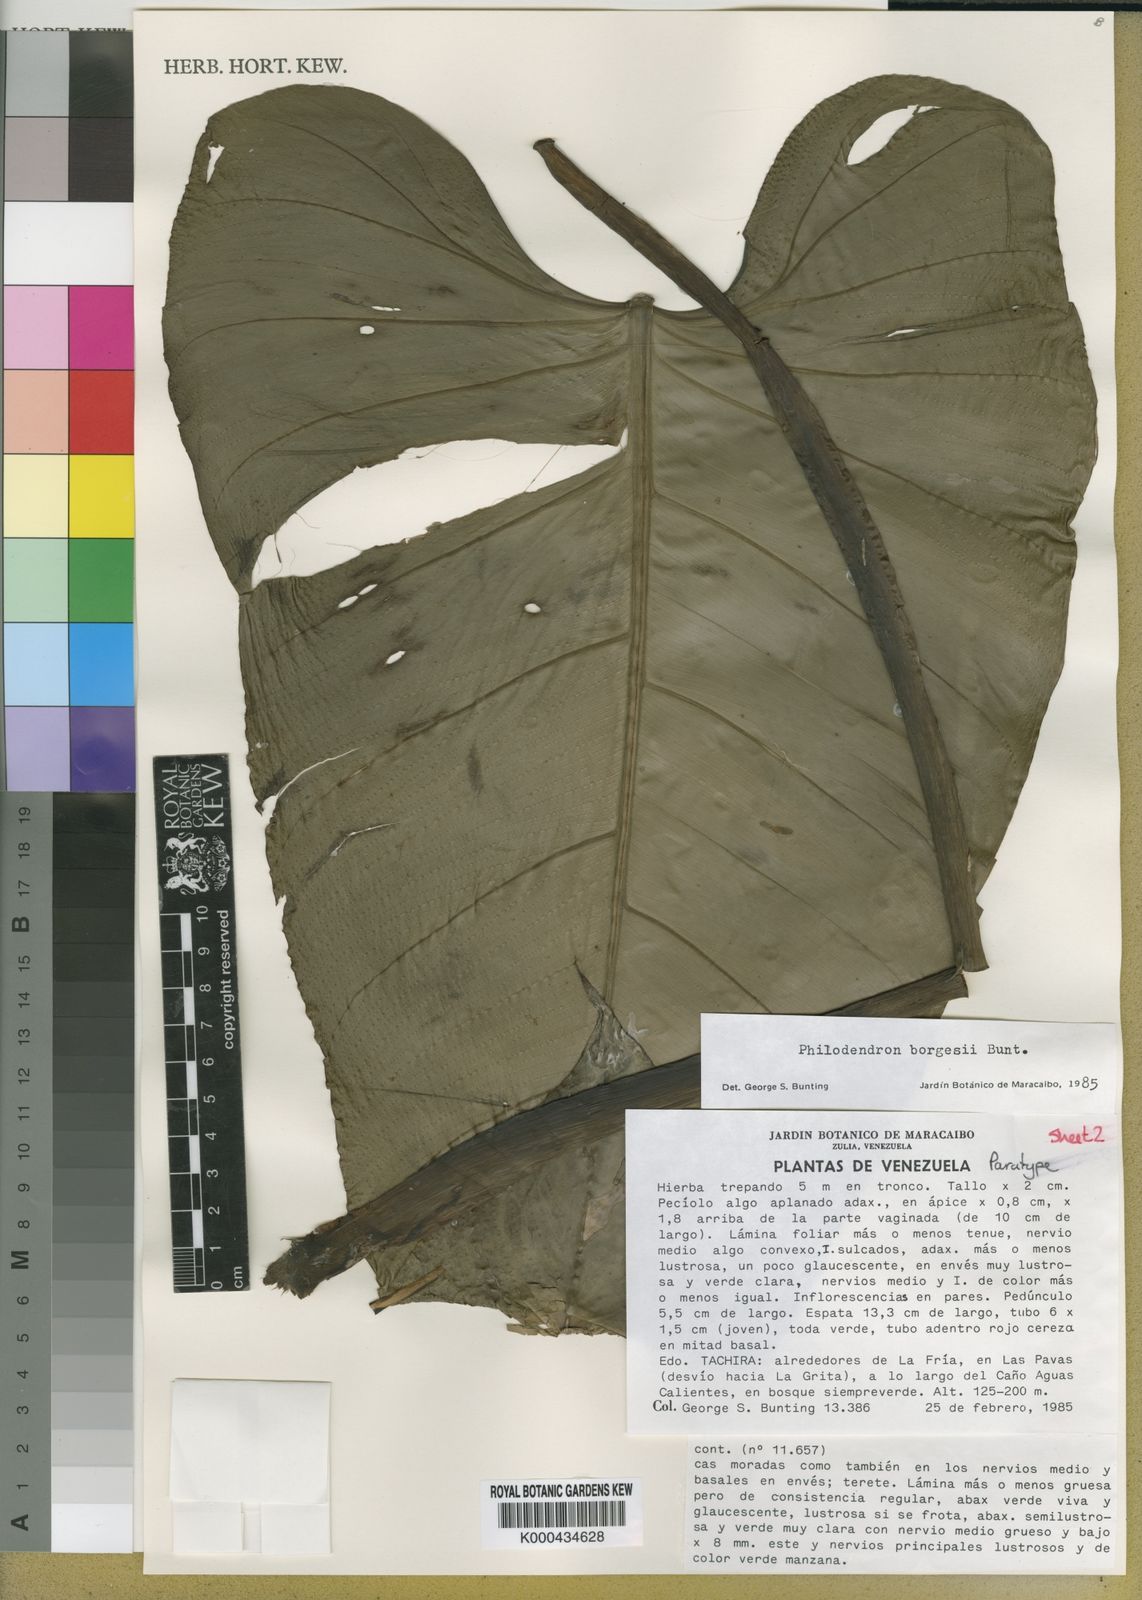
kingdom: Plantae
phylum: Tracheophyta
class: Liliopsida
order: Alismatales
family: Araceae
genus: Philodendron
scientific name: Philodendron borgesii
